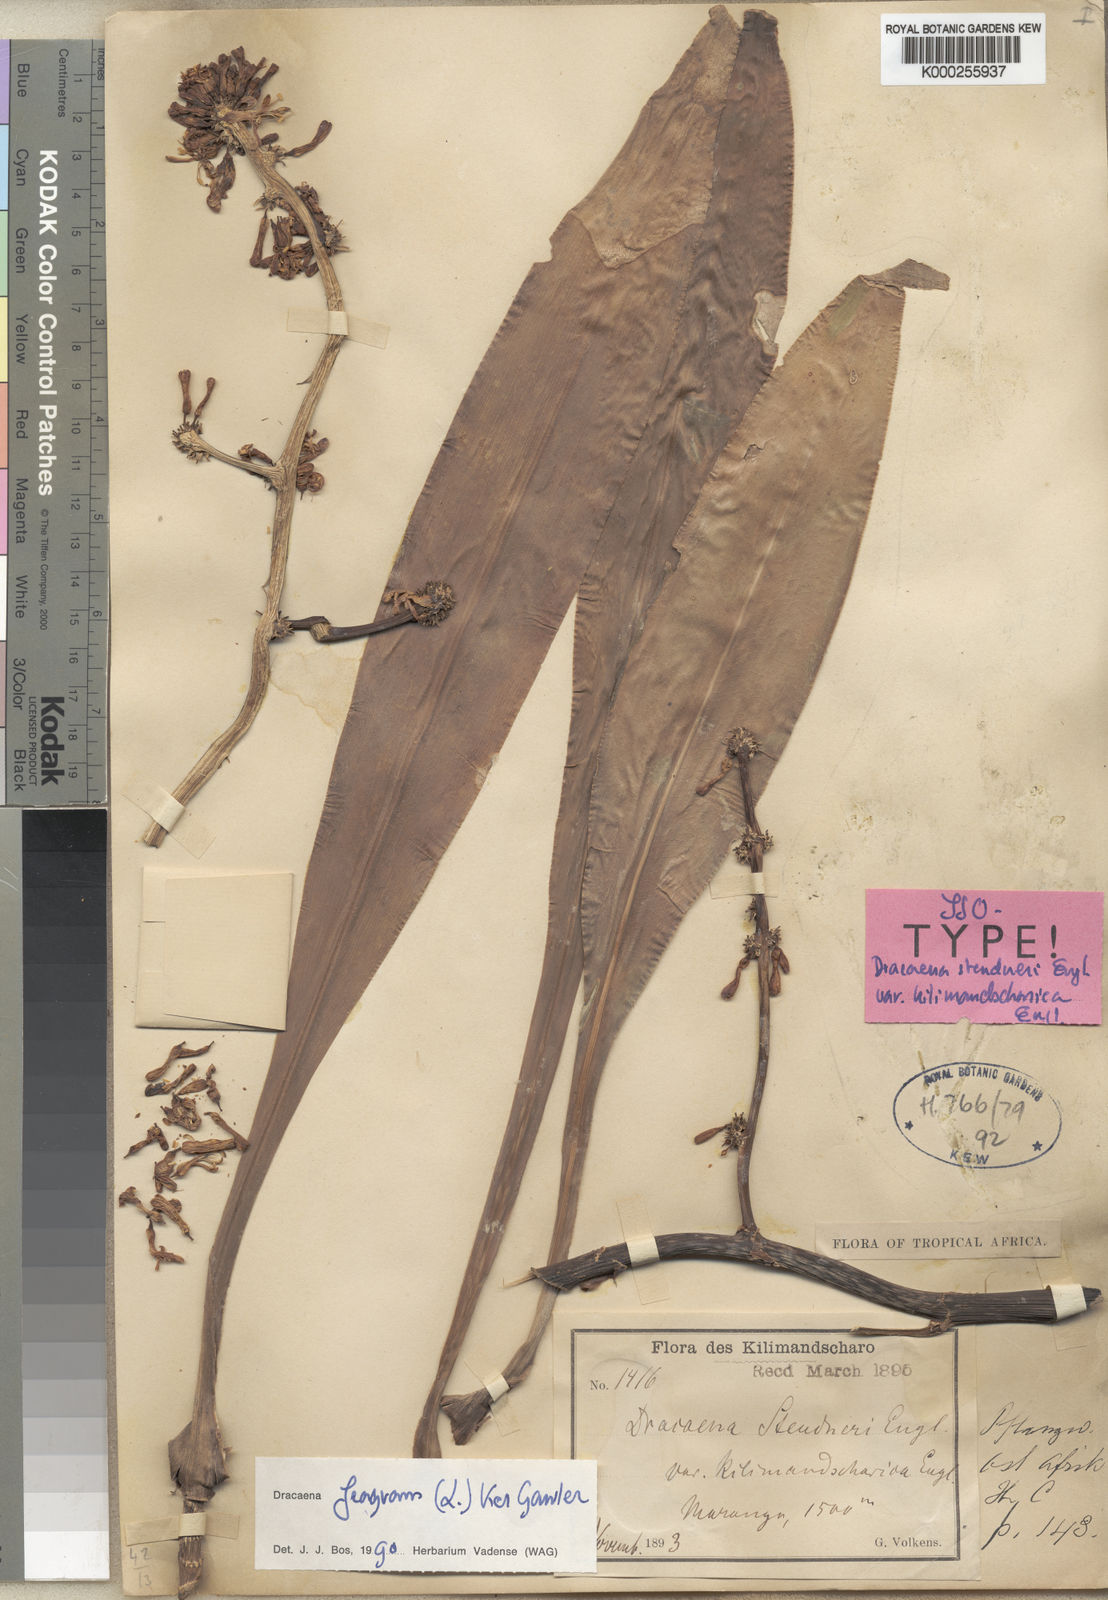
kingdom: Plantae
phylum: Tracheophyta
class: Liliopsida
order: Asparagales
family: Asparagaceae
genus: Dracaena
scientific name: Dracaena fragrans
